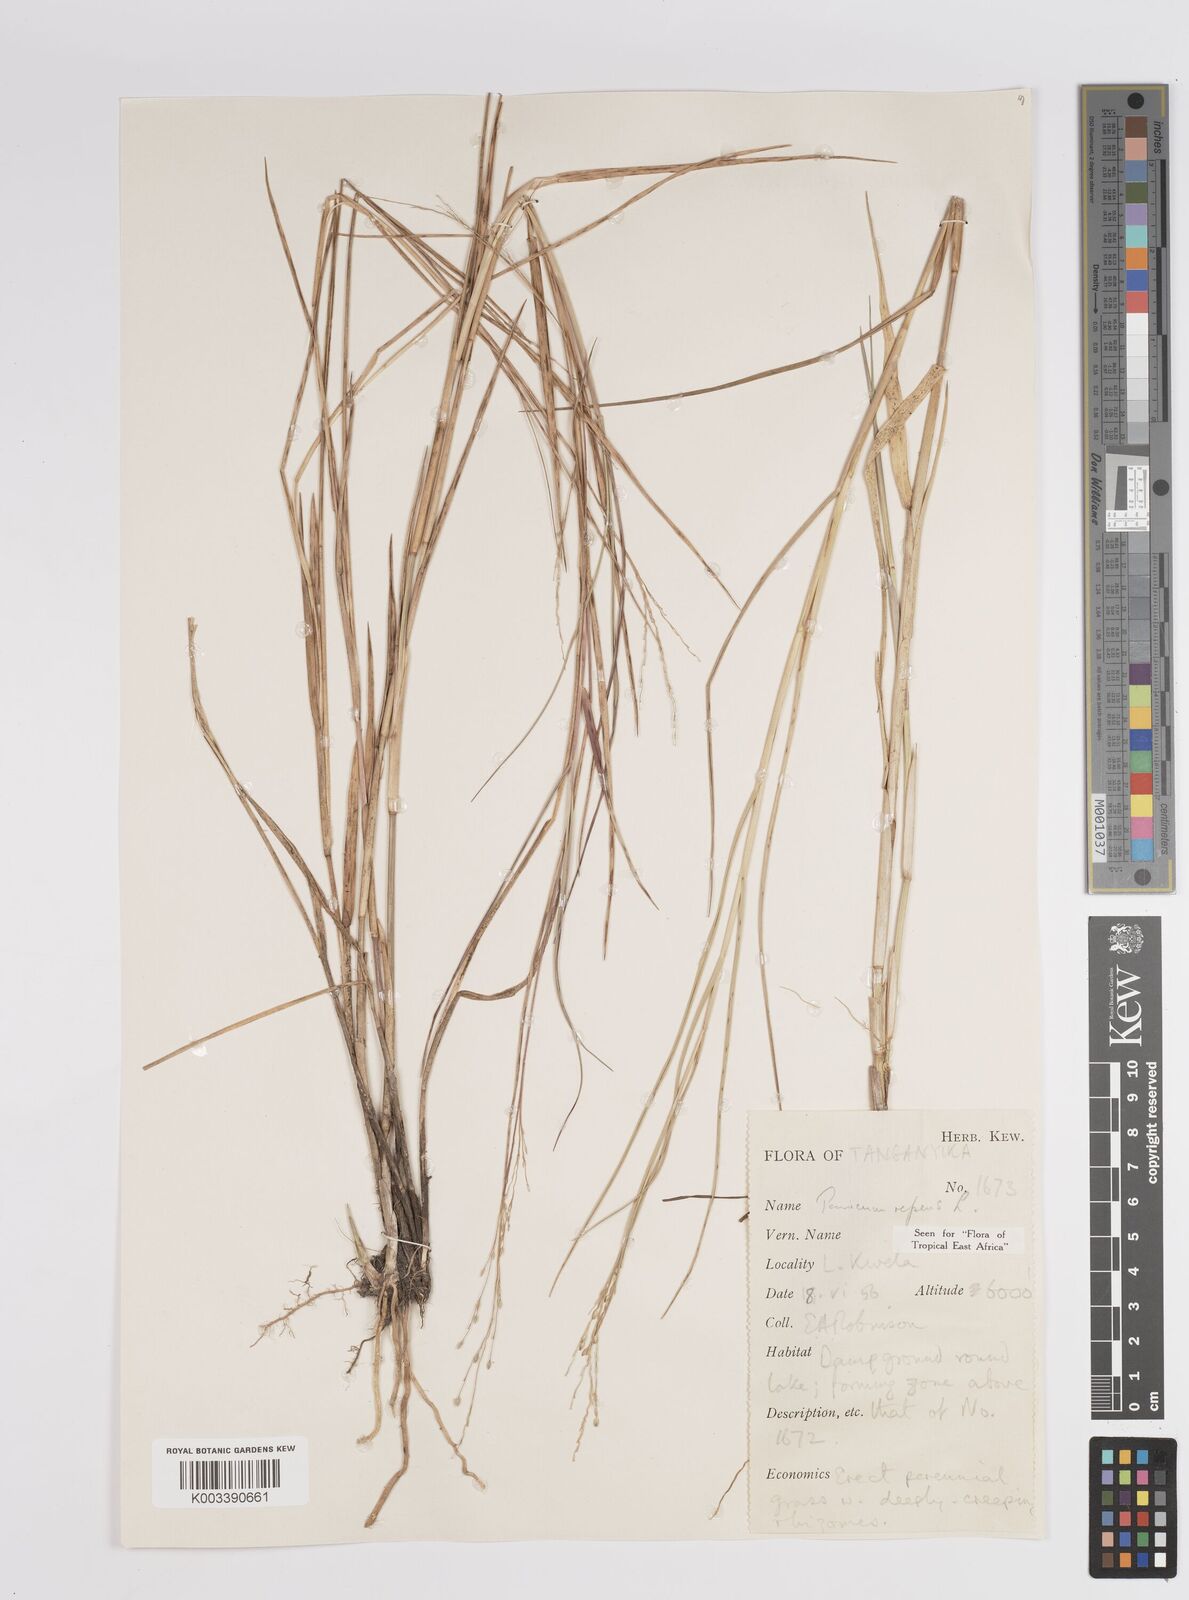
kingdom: Plantae
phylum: Tracheophyta
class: Liliopsida
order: Poales
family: Poaceae
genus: Panicum
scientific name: Panicum repens
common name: Torpedo grass
